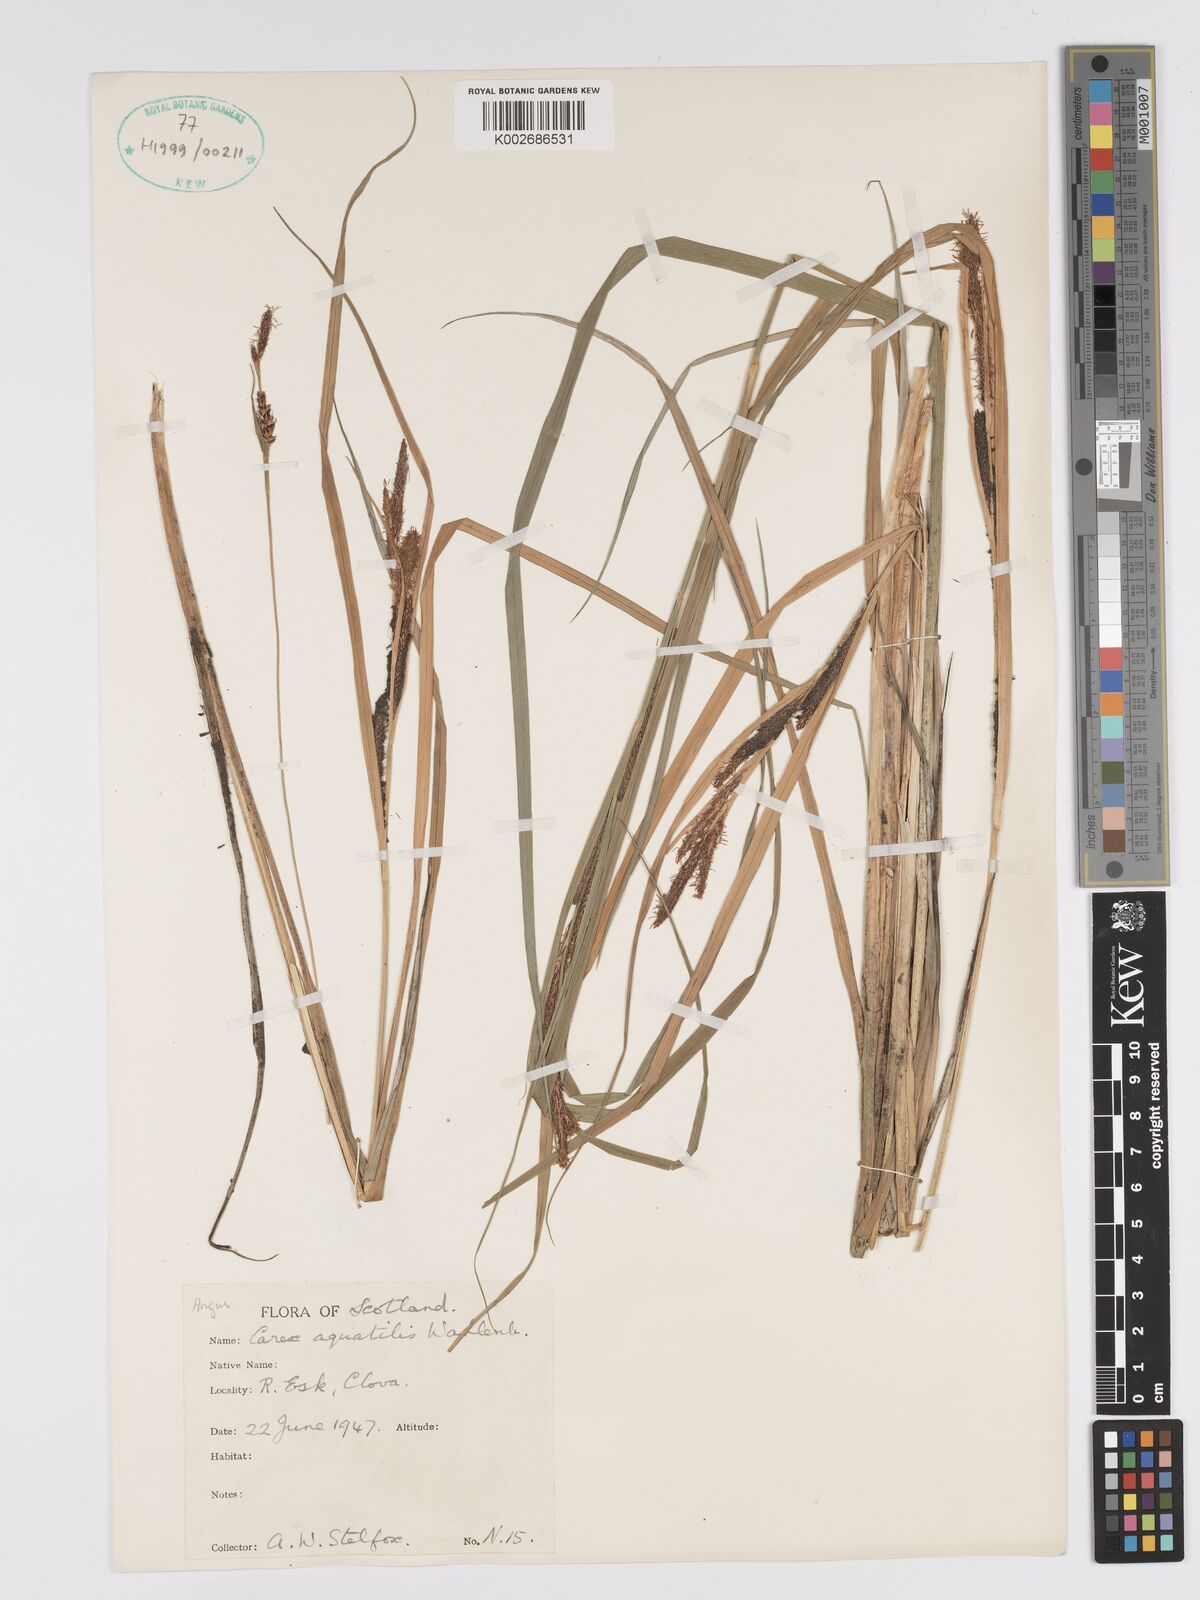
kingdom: Plantae
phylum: Tracheophyta
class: Liliopsida
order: Poales
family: Cyperaceae
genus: Carex
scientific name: Carex aquatilis
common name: Water sedge
